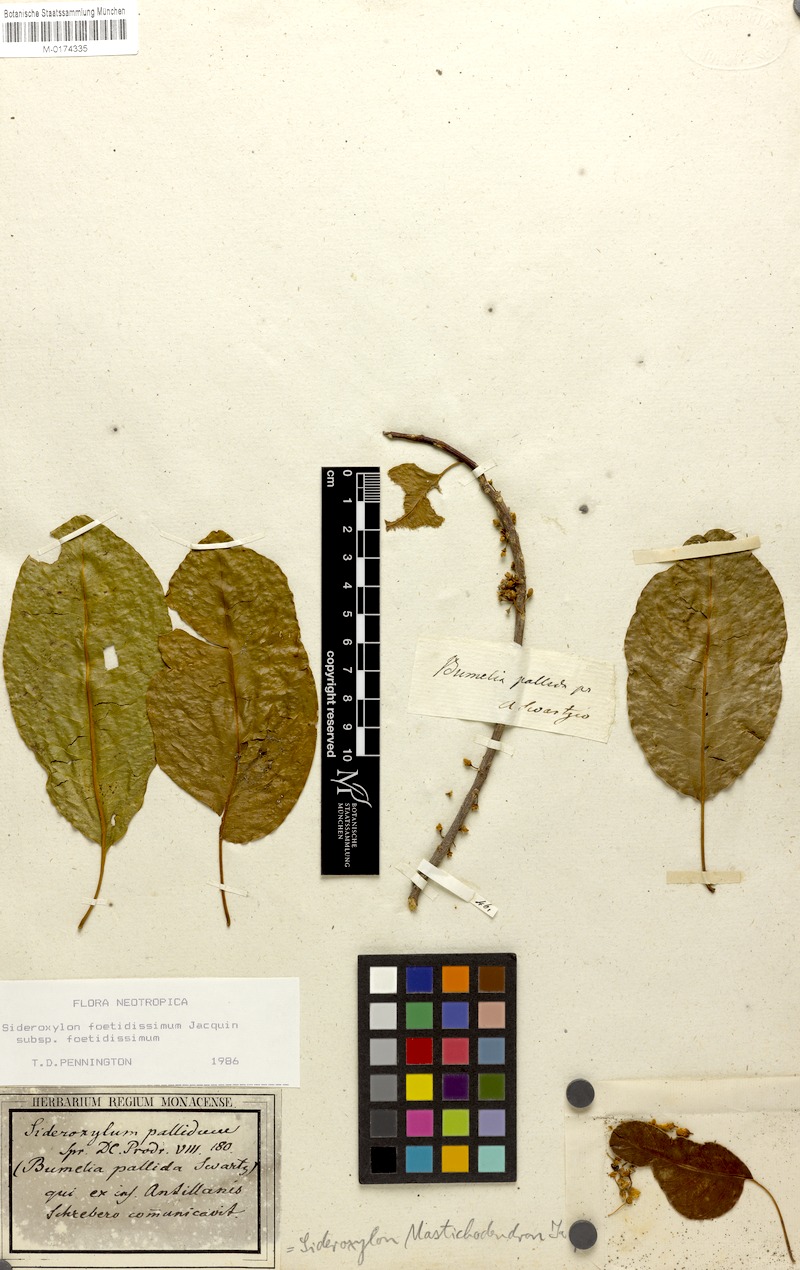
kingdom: Plantae
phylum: Tracheophyta
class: Magnoliopsida
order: Ericales
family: Sapotaceae
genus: Sideroxylon
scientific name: Sideroxylon foetidissimum
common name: Barbados-mastic
